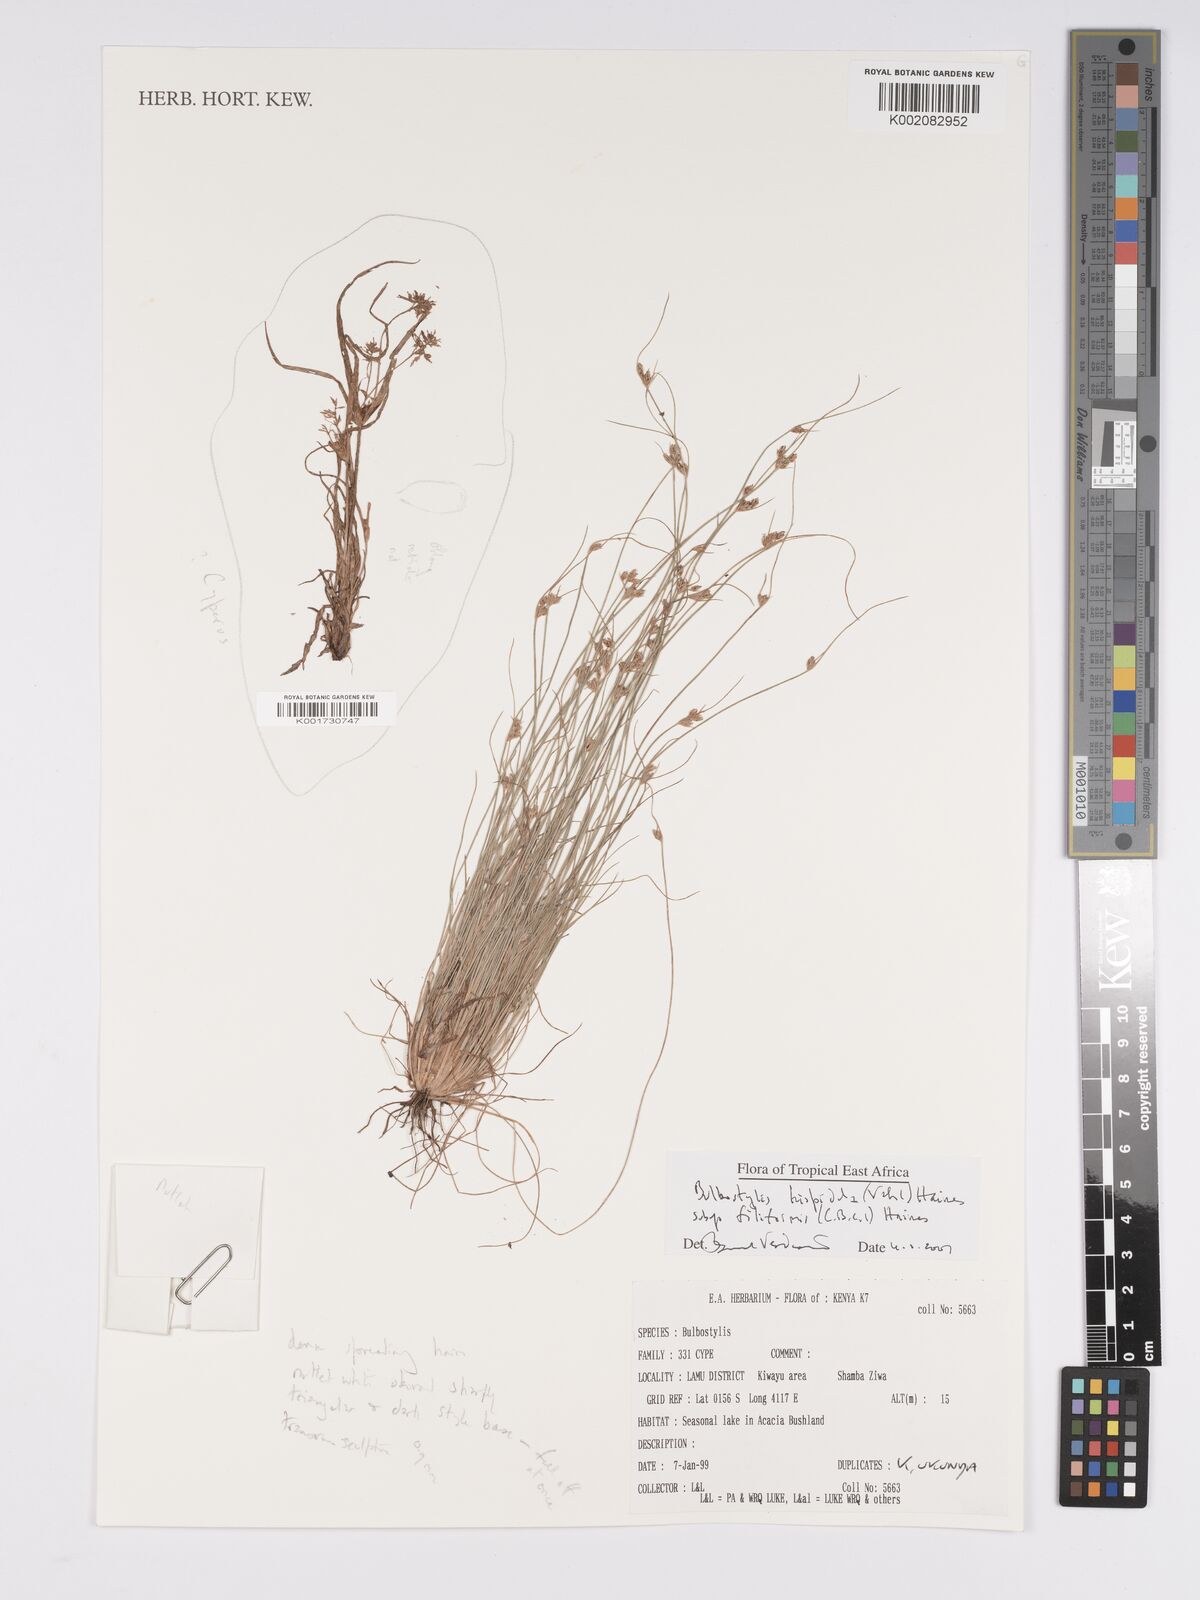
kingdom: Plantae
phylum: Tracheophyta
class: Liliopsida
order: Poales
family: Cyperaceae
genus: Bulbostylis
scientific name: Bulbostylis hispidula
